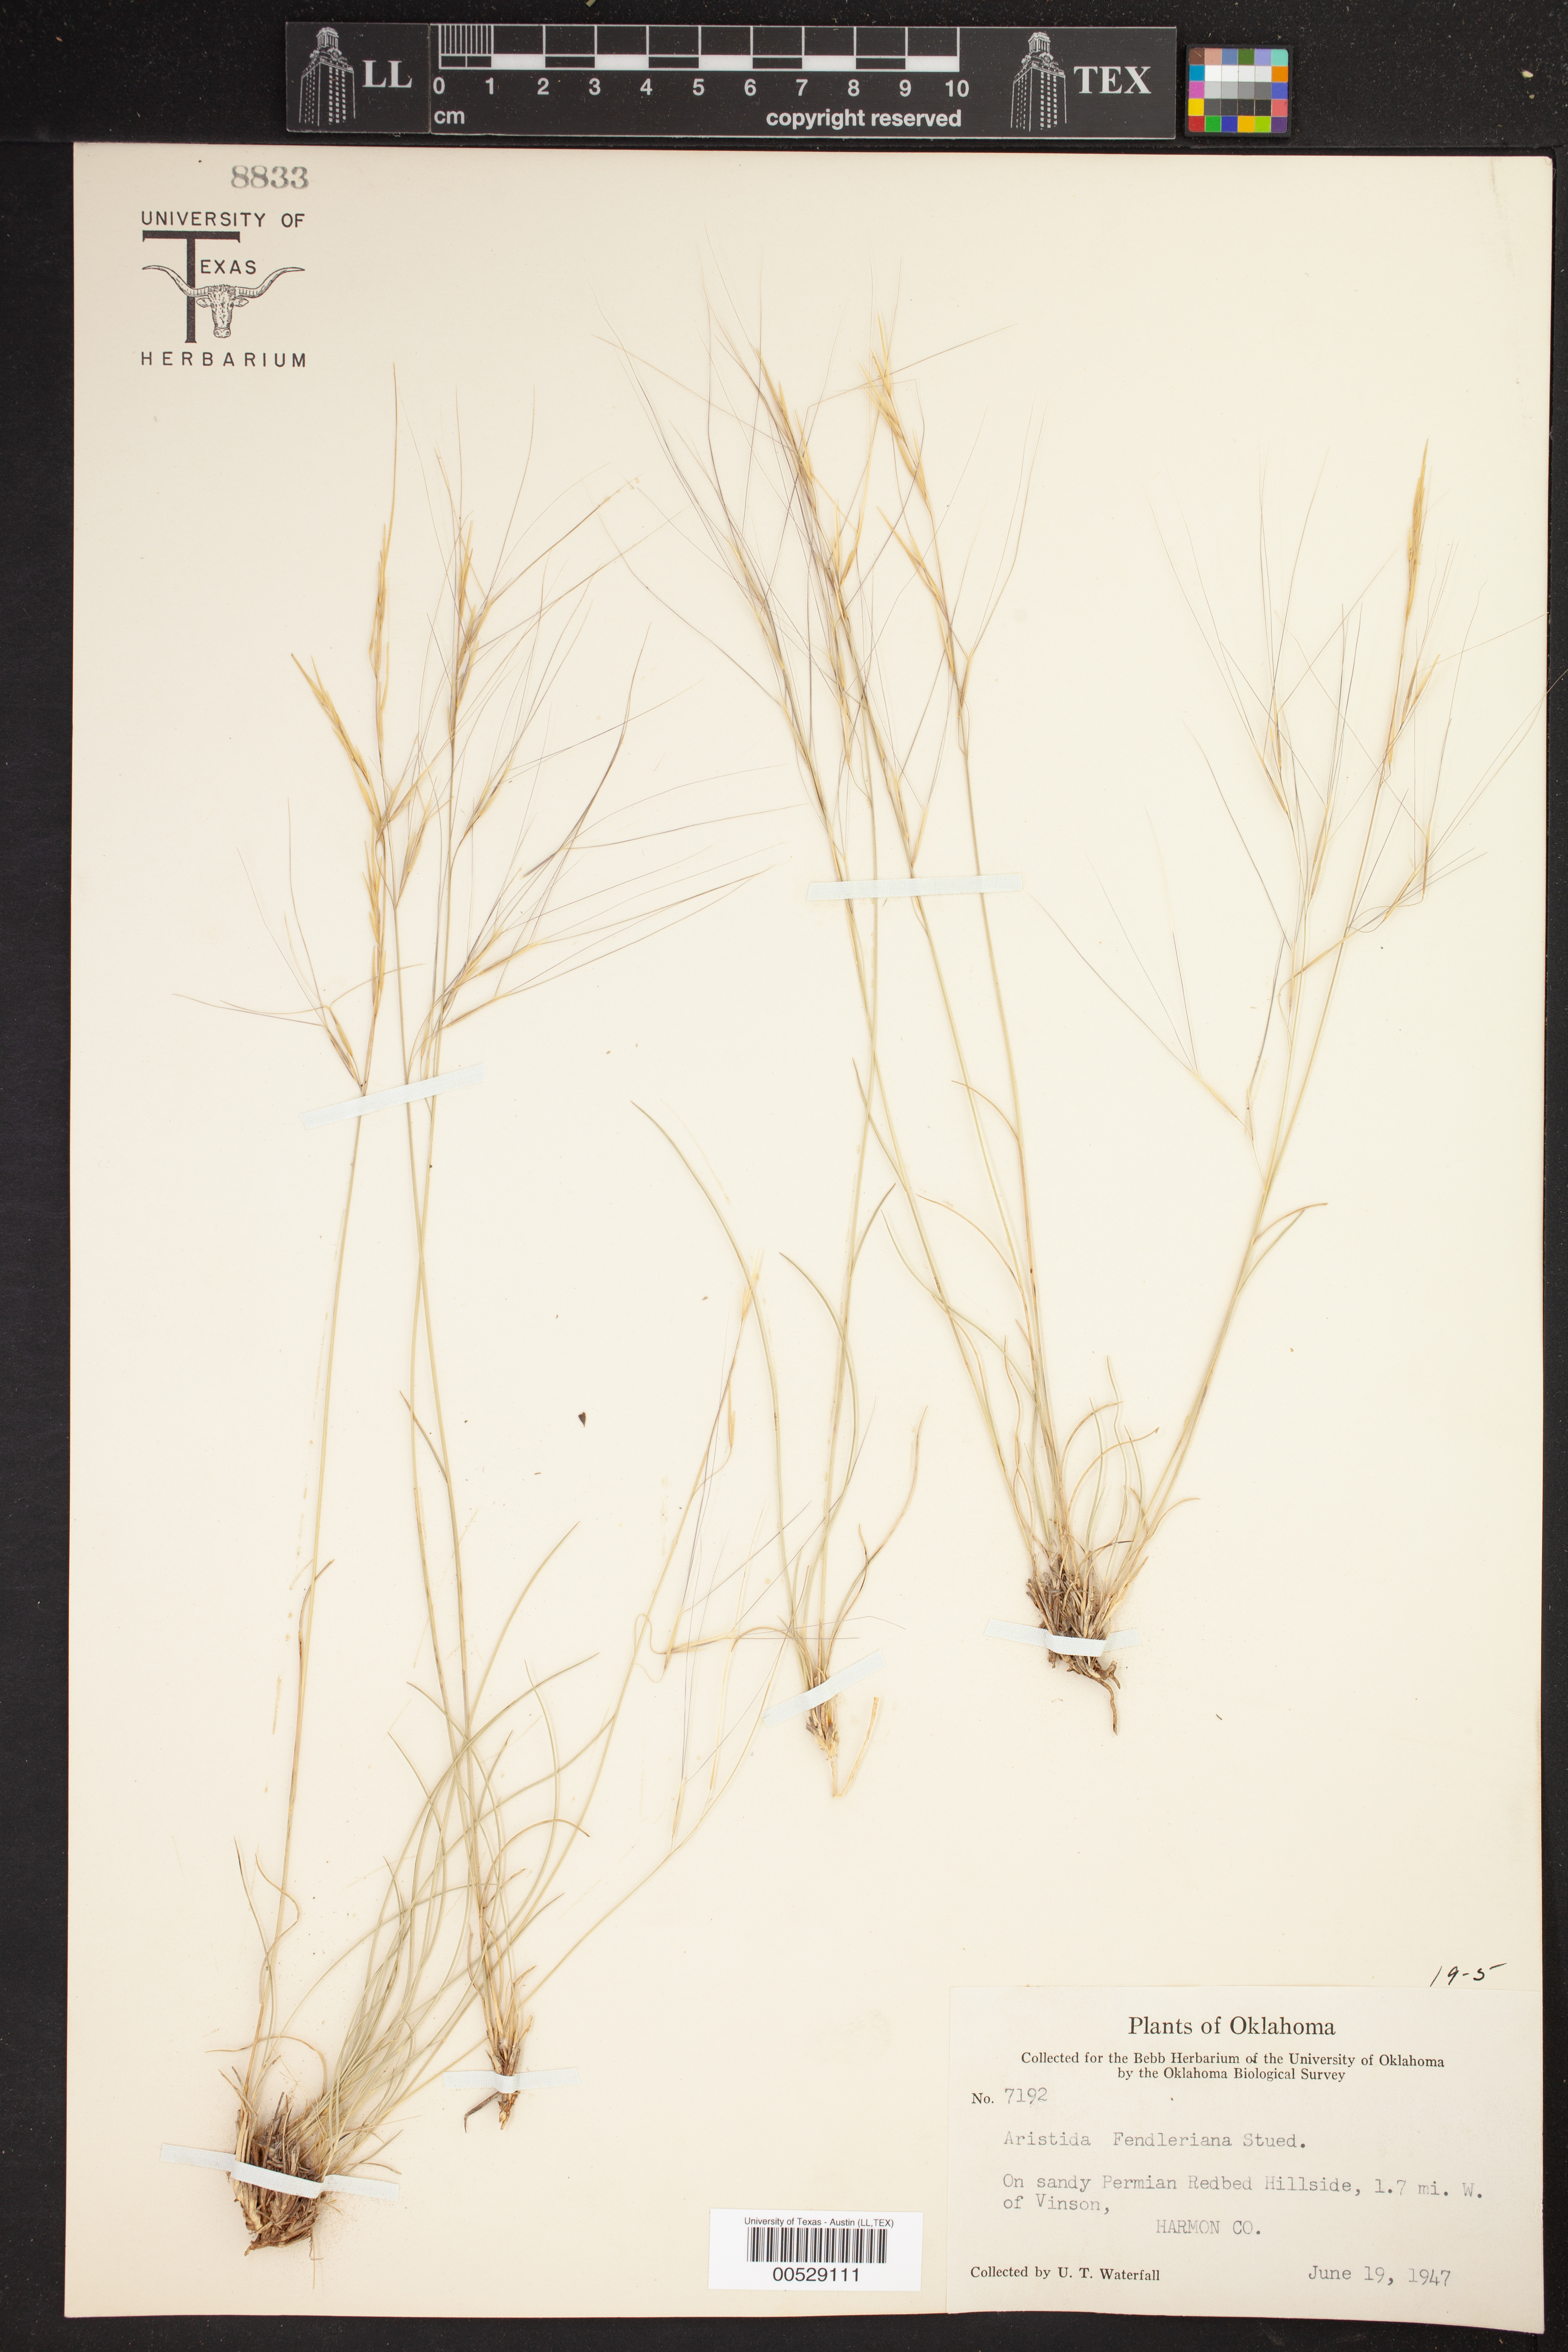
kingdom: Plantae
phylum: Tracheophyta
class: Liliopsida
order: Poales
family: Poaceae
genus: Aristida
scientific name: Aristida fendleriana
